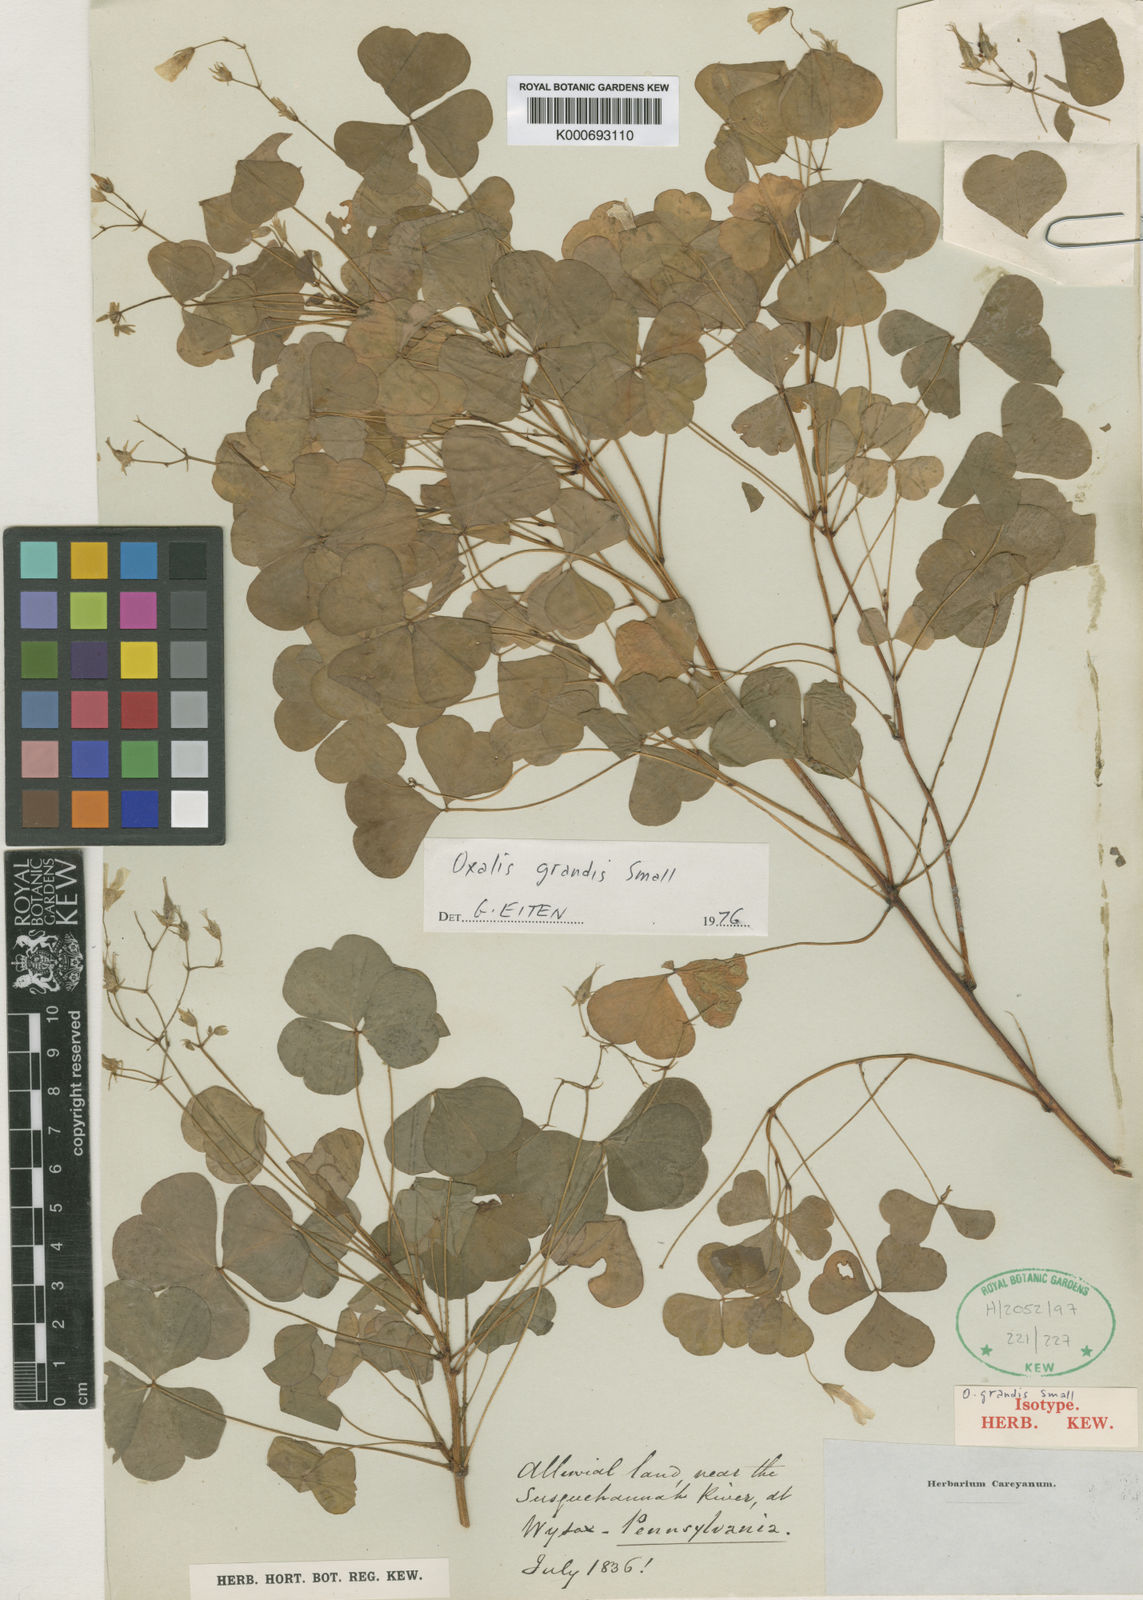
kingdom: Plantae
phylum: Tracheophyta
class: Magnoliopsida
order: Oxalidales
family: Oxalidaceae
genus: Oxalis
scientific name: Oxalis grandis
